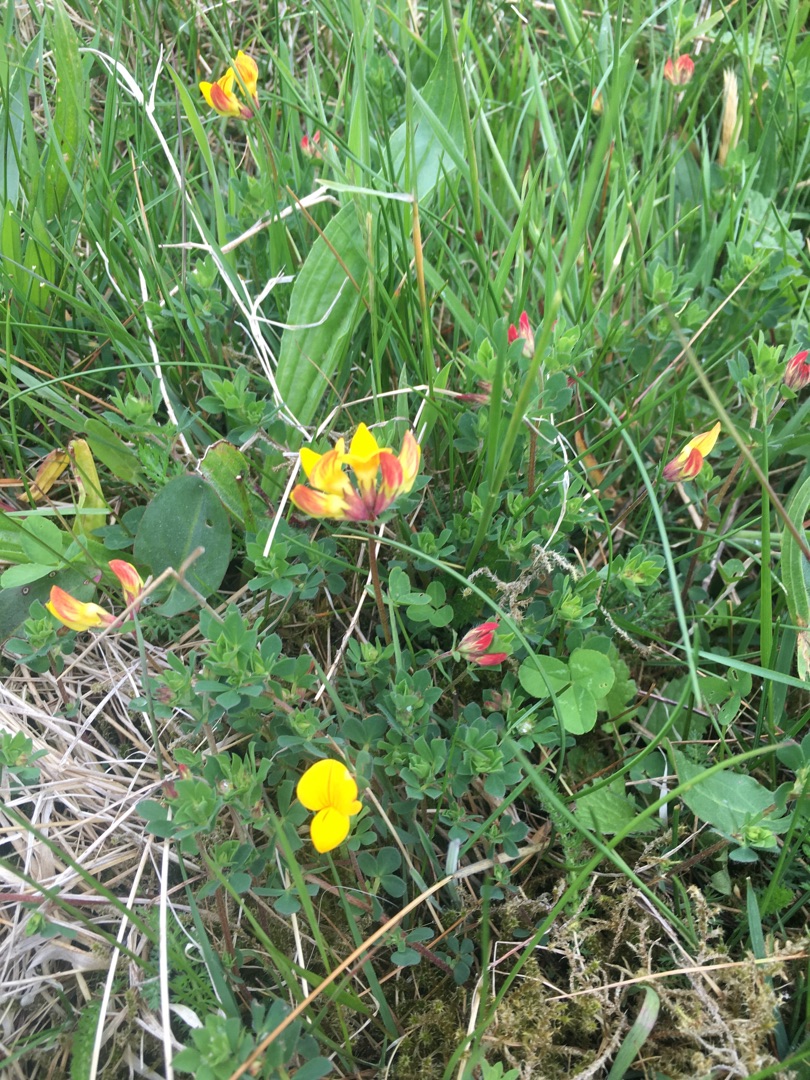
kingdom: Plantae
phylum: Tracheophyta
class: Magnoliopsida
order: Fabales
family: Fabaceae
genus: Lotus
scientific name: Lotus corniculatus
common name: Almindelig kællingetand
